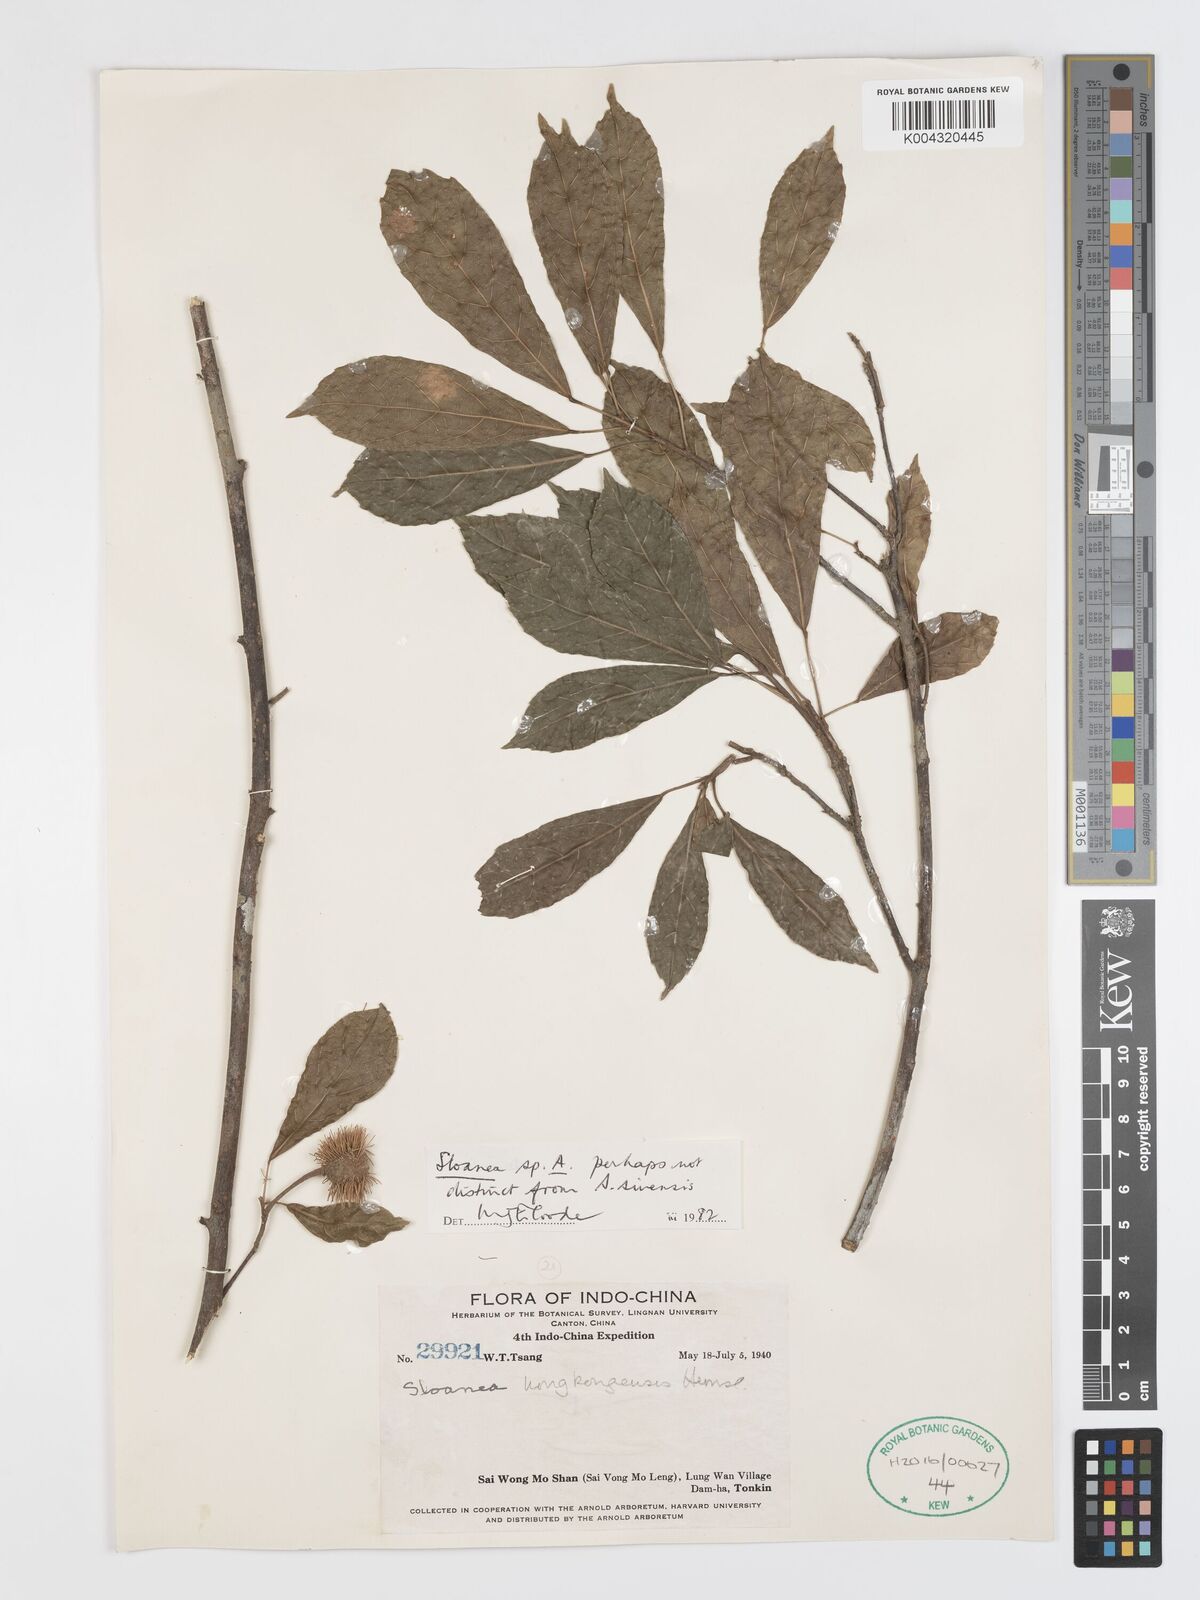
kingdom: Plantae
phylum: Tracheophyta
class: Magnoliopsida
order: Oxalidales
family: Elaeocarpaceae
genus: Sloanea
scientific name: Sloanea sinensis
